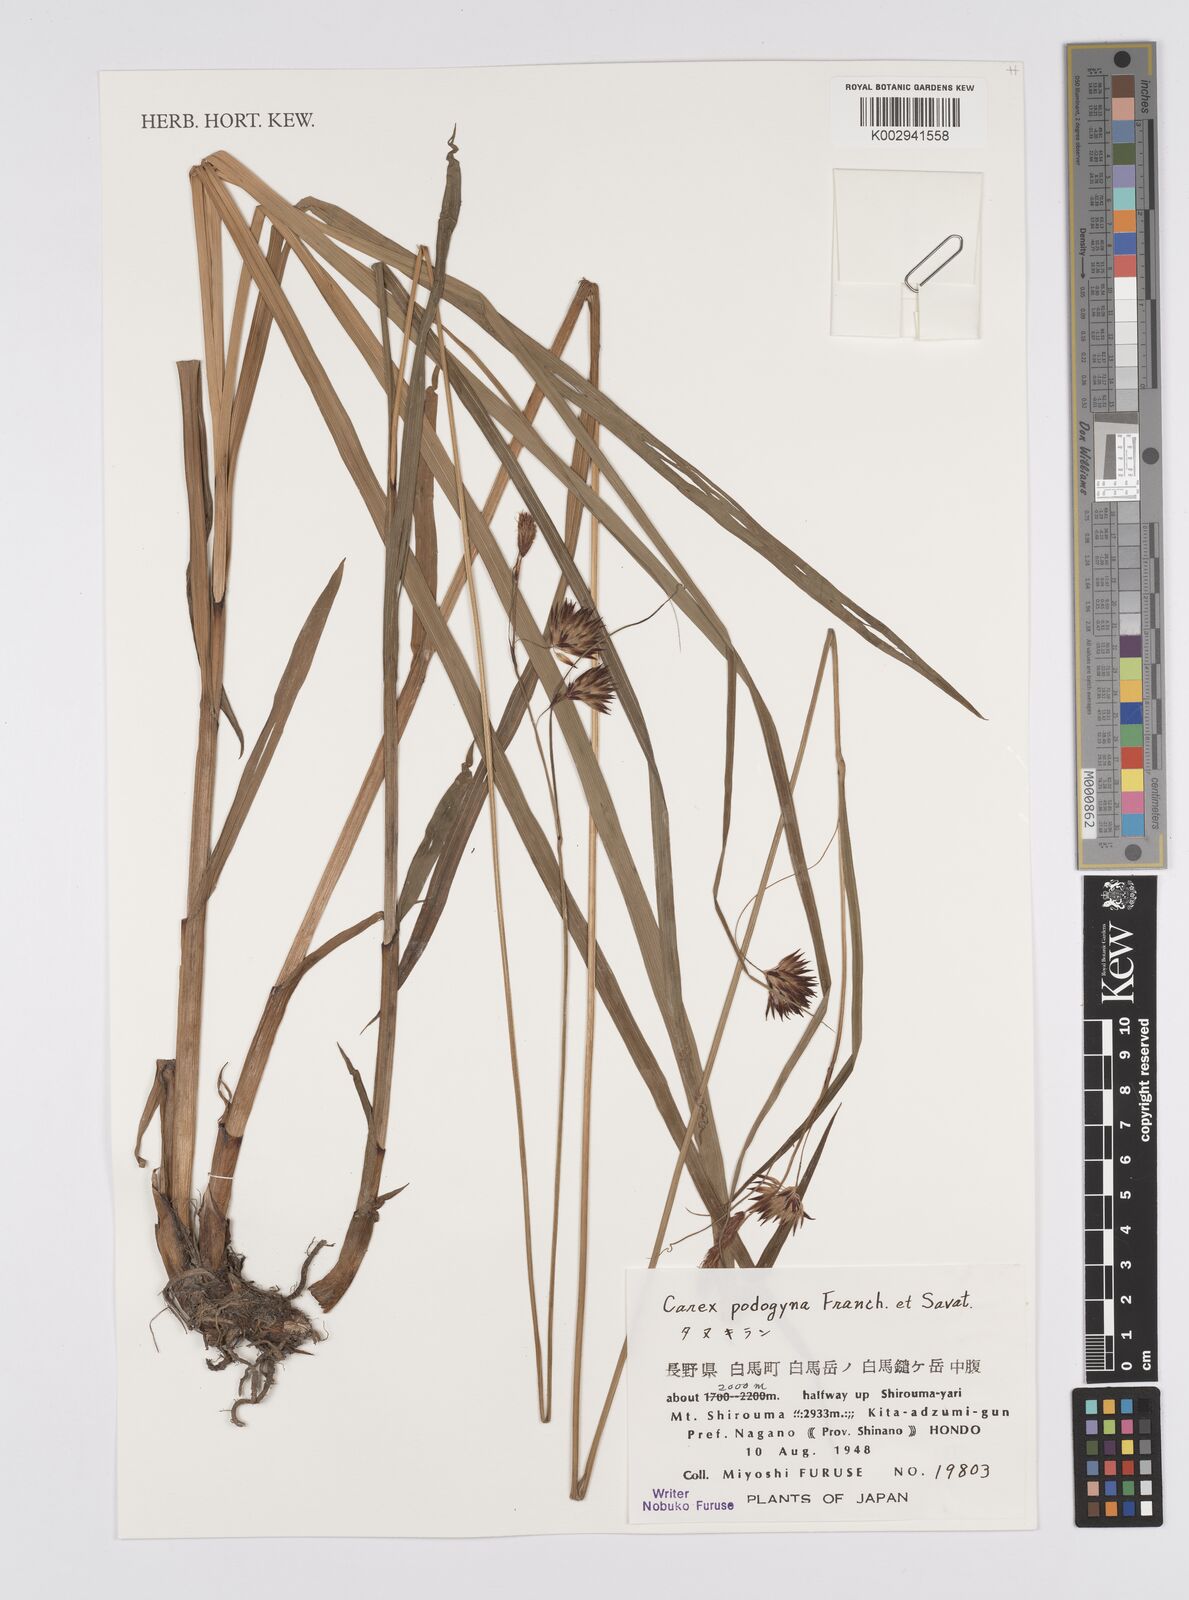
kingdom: Plantae
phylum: Tracheophyta
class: Liliopsida
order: Poales
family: Cyperaceae
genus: Carex
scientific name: Carex podogyna
